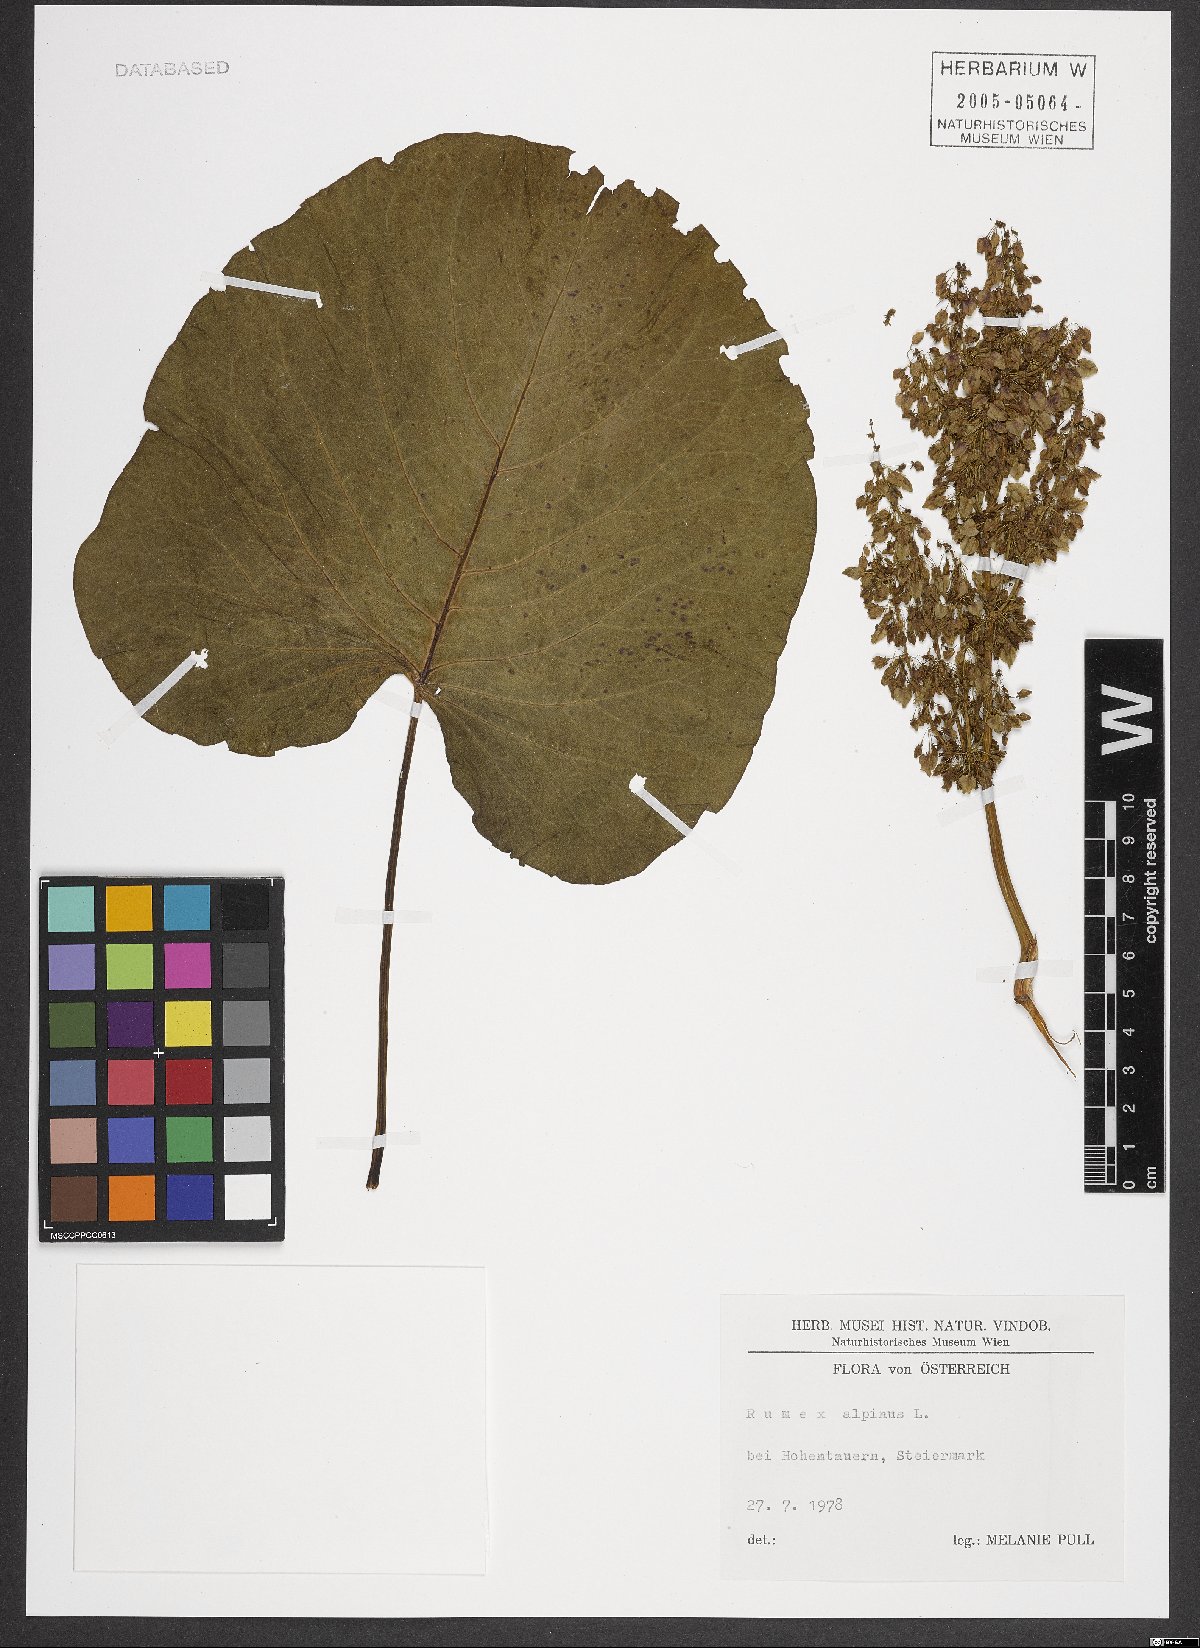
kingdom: Plantae
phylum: Tracheophyta
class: Magnoliopsida
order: Caryophyllales
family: Polygonaceae
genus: Rumex
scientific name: Rumex alpinus
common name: Alpine dock
